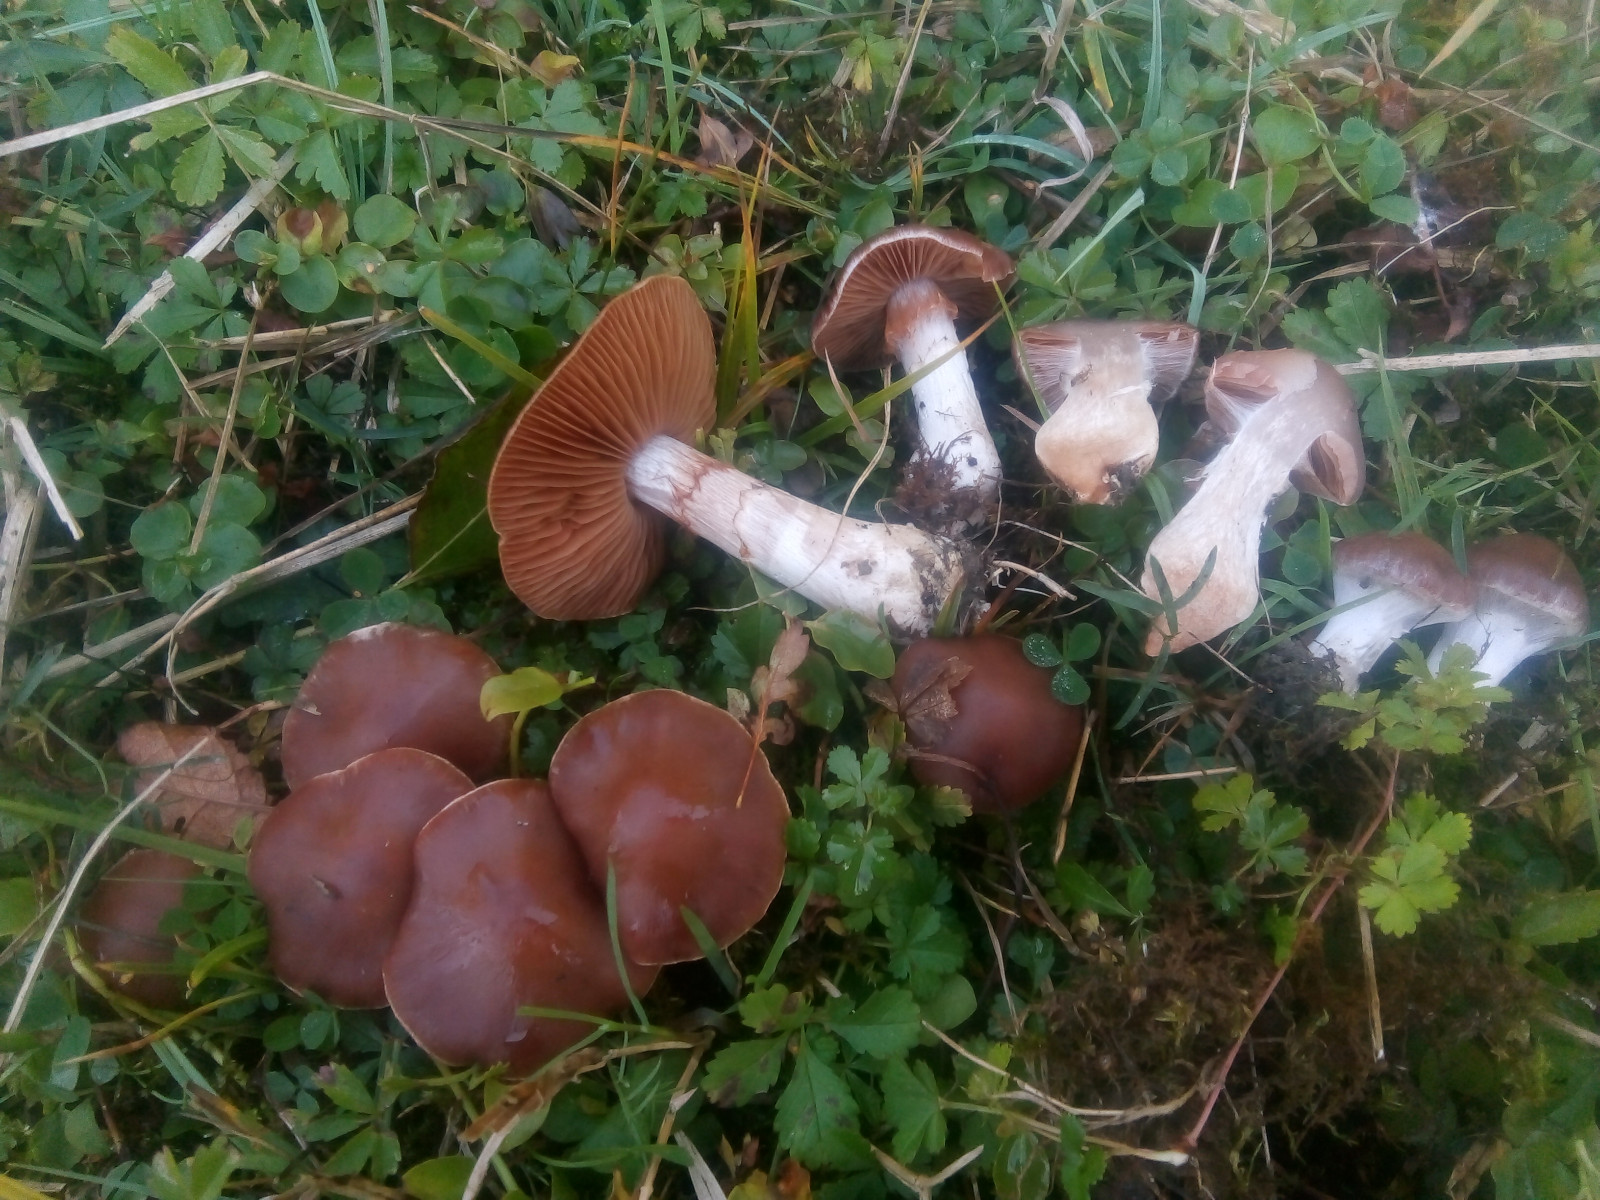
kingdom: Fungi
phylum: Basidiomycota
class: Agaricomycetes
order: Agaricales
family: Cortinariaceae
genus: Cortinarius
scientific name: Cortinarius saturninus
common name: brunviolet slørhat
